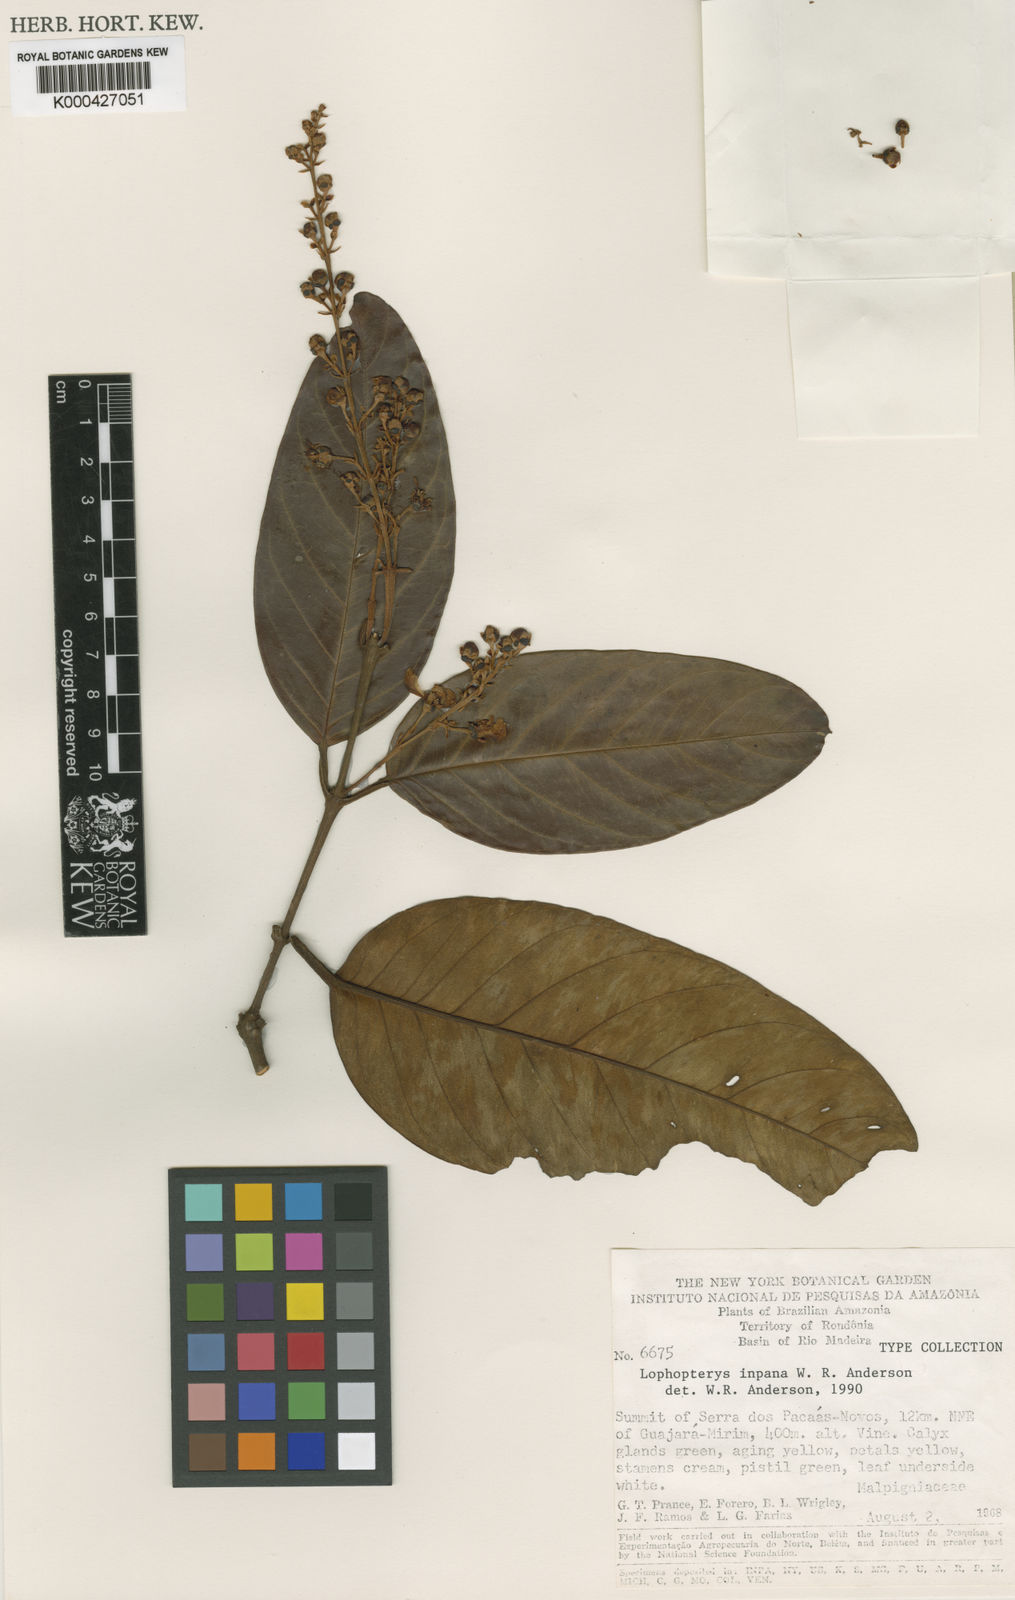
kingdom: Plantae
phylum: Tracheophyta
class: Magnoliopsida
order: Malpighiales
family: Malpighiaceae
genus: Lophopterys
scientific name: Lophopterys inpana
